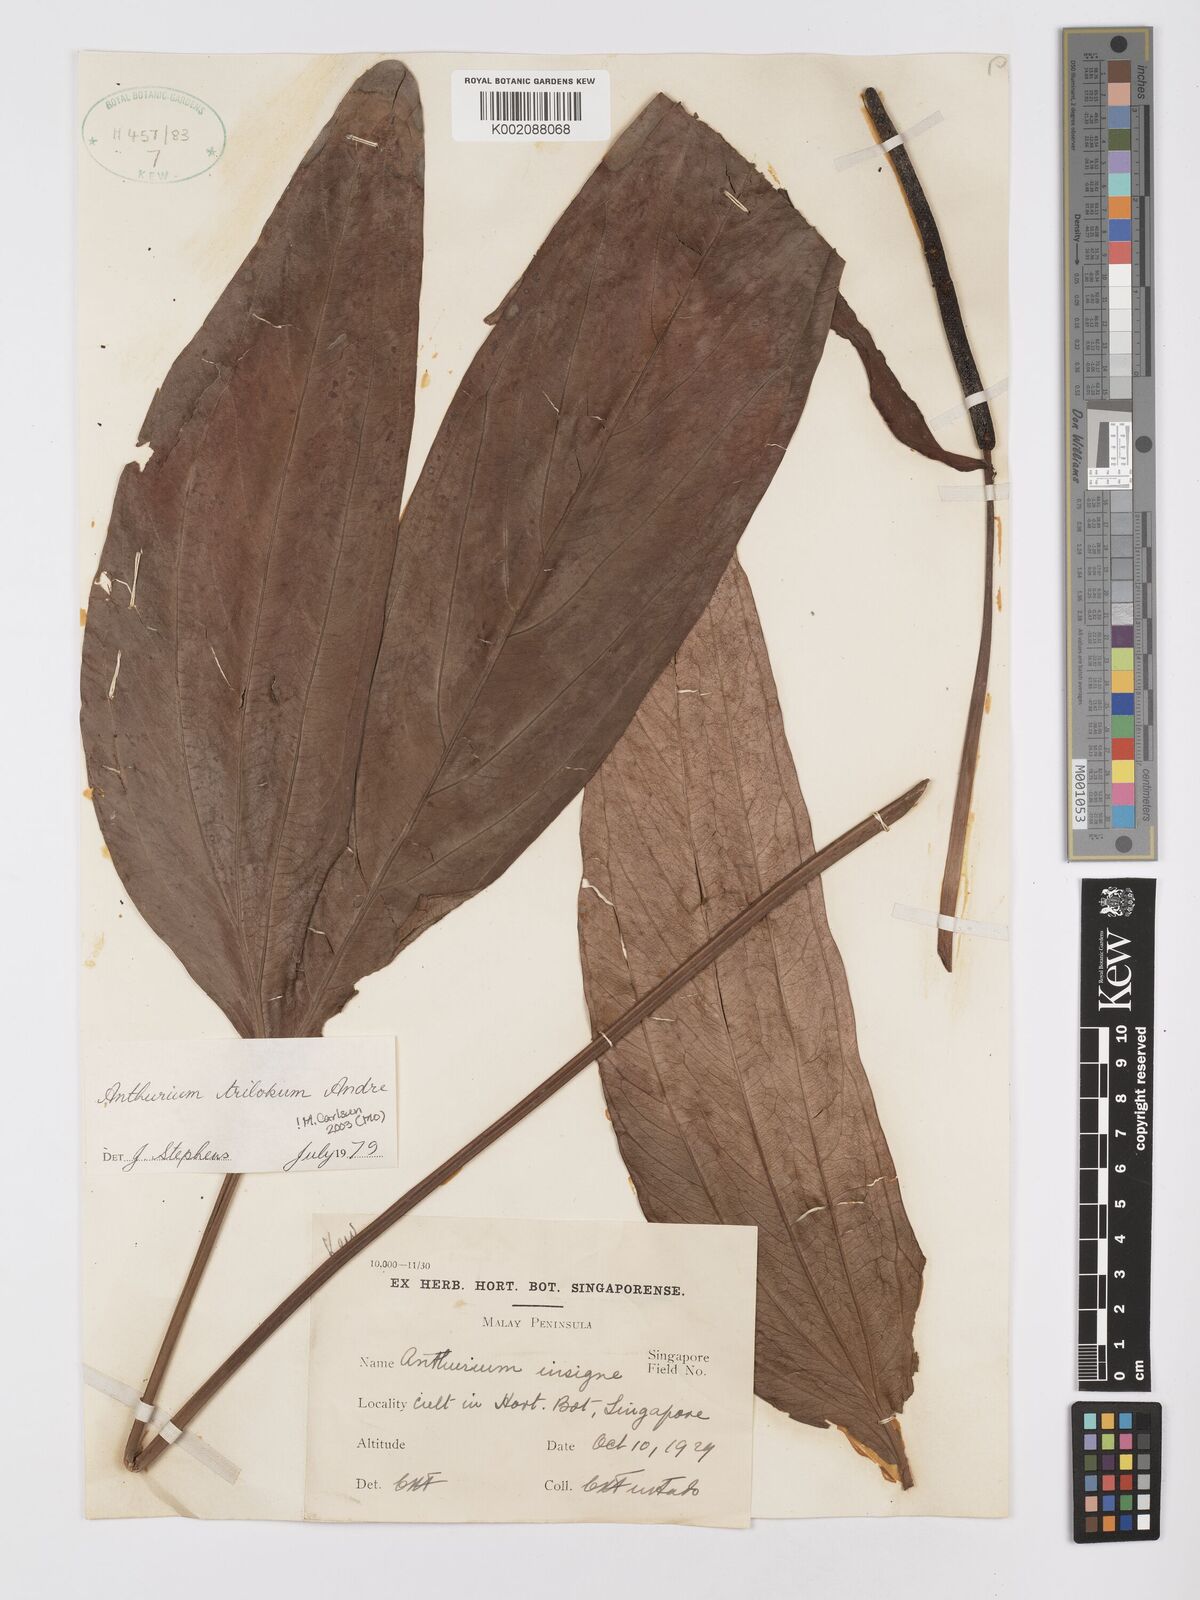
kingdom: Plantae
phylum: Tracheophyta
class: Liliopsida
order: Alismatales
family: Araceae
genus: Anthurium
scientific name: Anthurium trilobum
